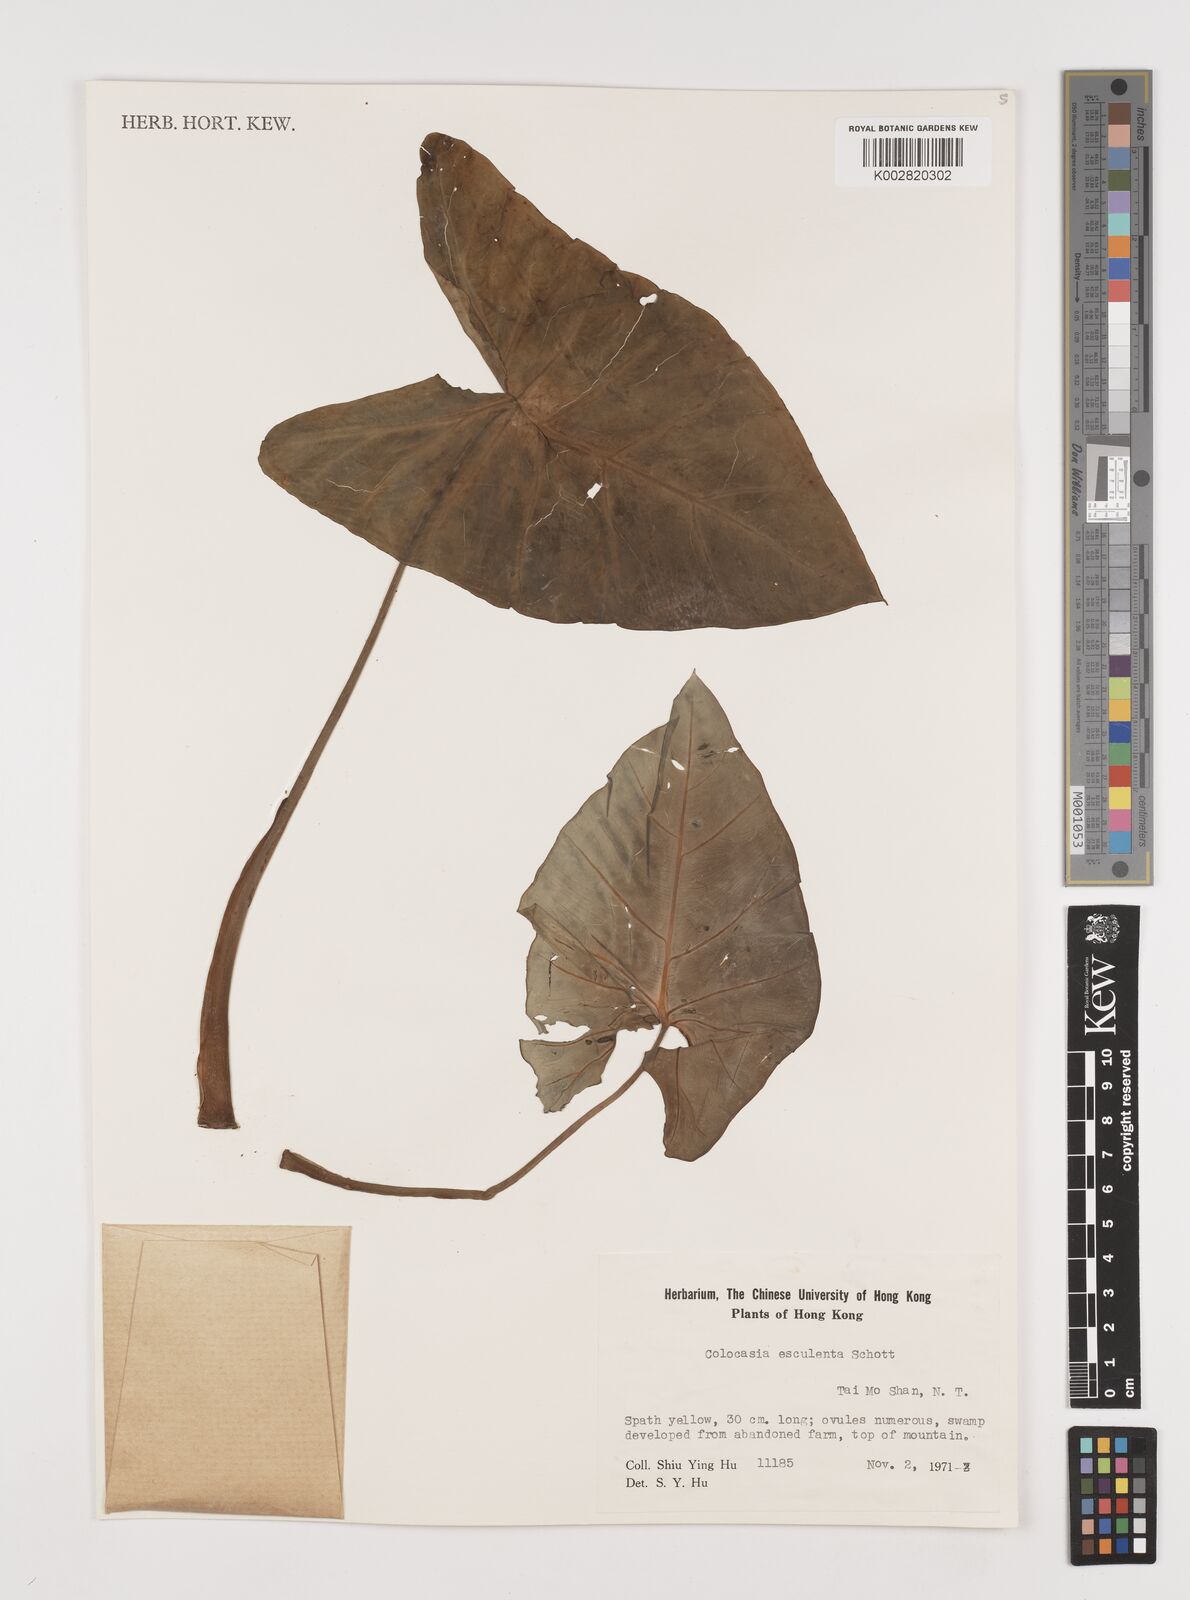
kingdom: Plantae
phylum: Tracheophyta
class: Liliopsida
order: Alismatales
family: Araceae
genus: Colocasia
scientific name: Colocasia esculenta
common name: Taro
